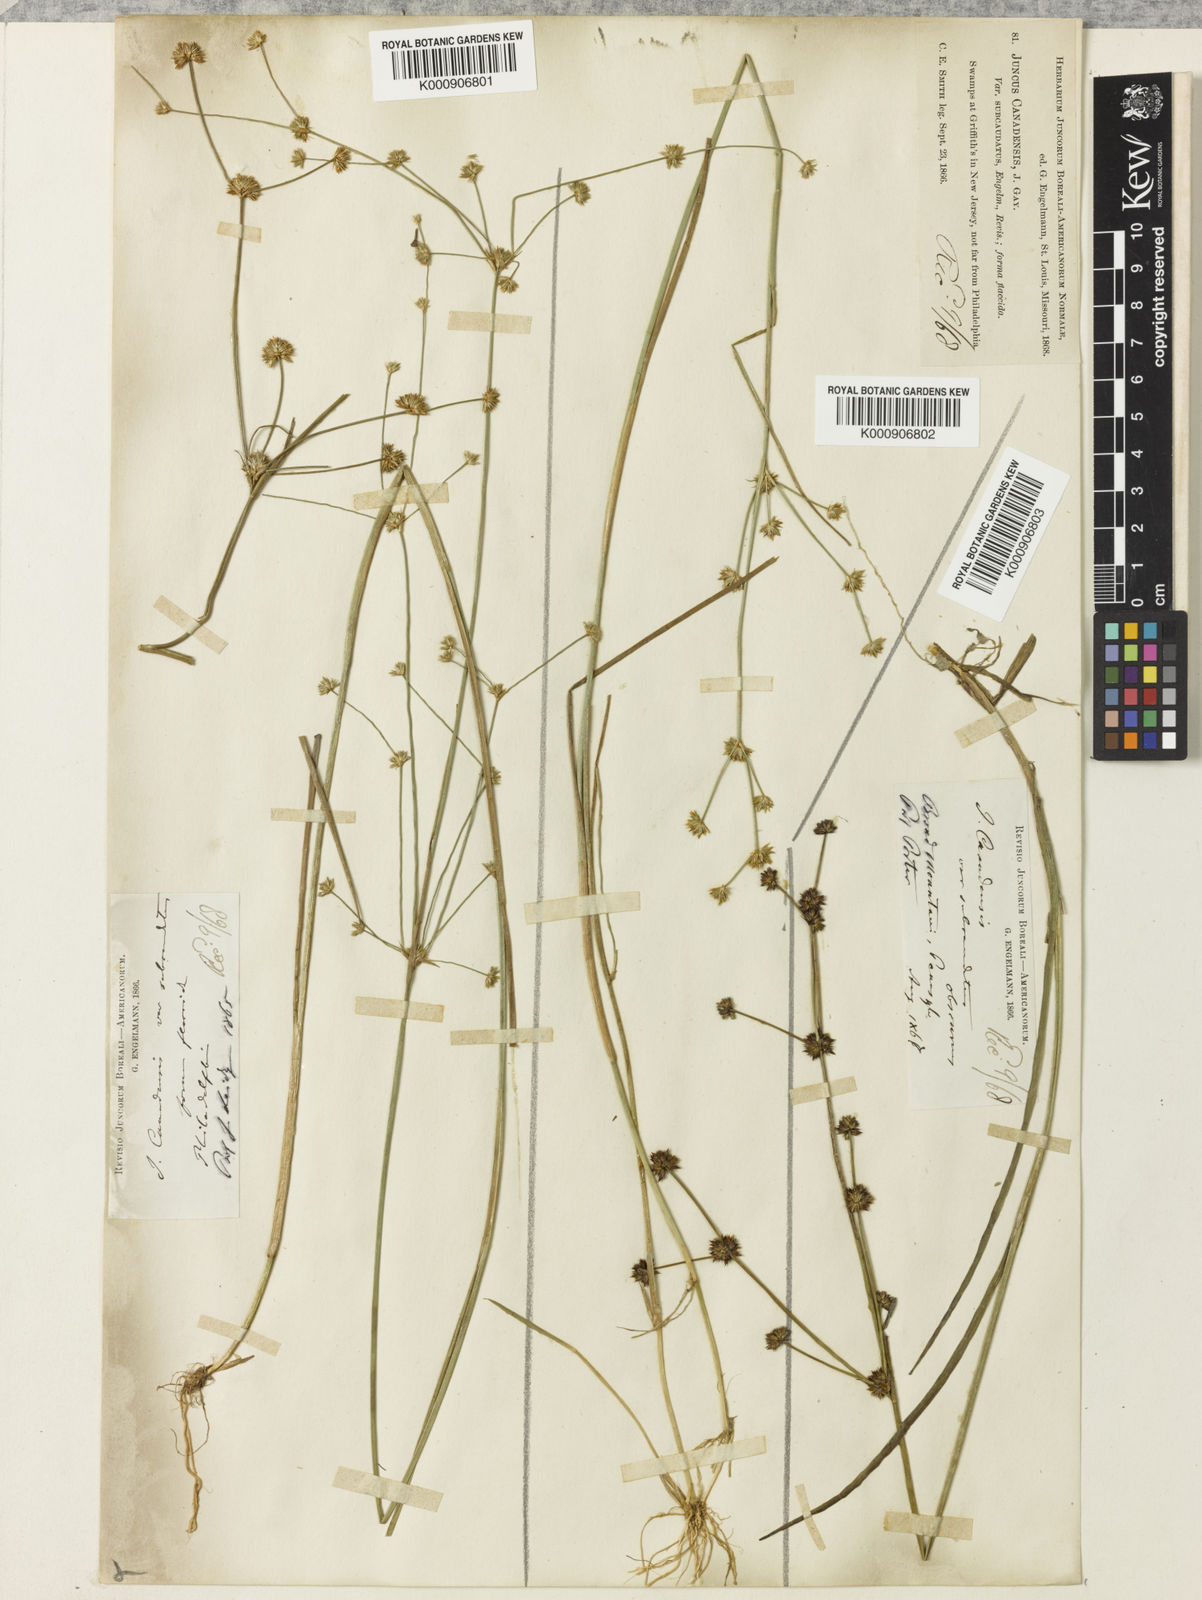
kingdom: Plantae
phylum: Tracheophyta
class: Liliopsida
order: Poales
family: Juncaceae
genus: Juncus
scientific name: Juncus
